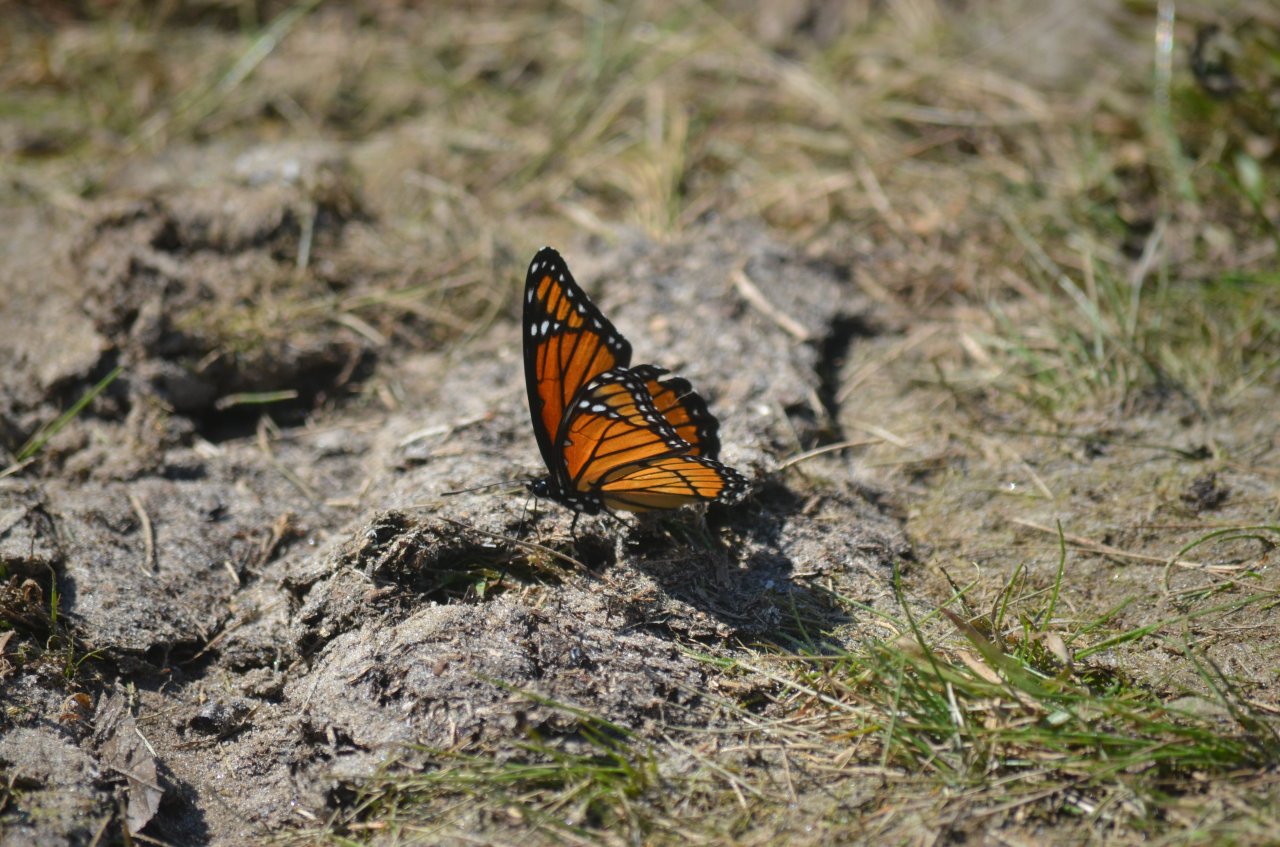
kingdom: Animalia
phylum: Arthropoda
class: Insecta
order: Lepidoptera
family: Nymphalidae
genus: Limenitis
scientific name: Limenitis archippus
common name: Viceroy
